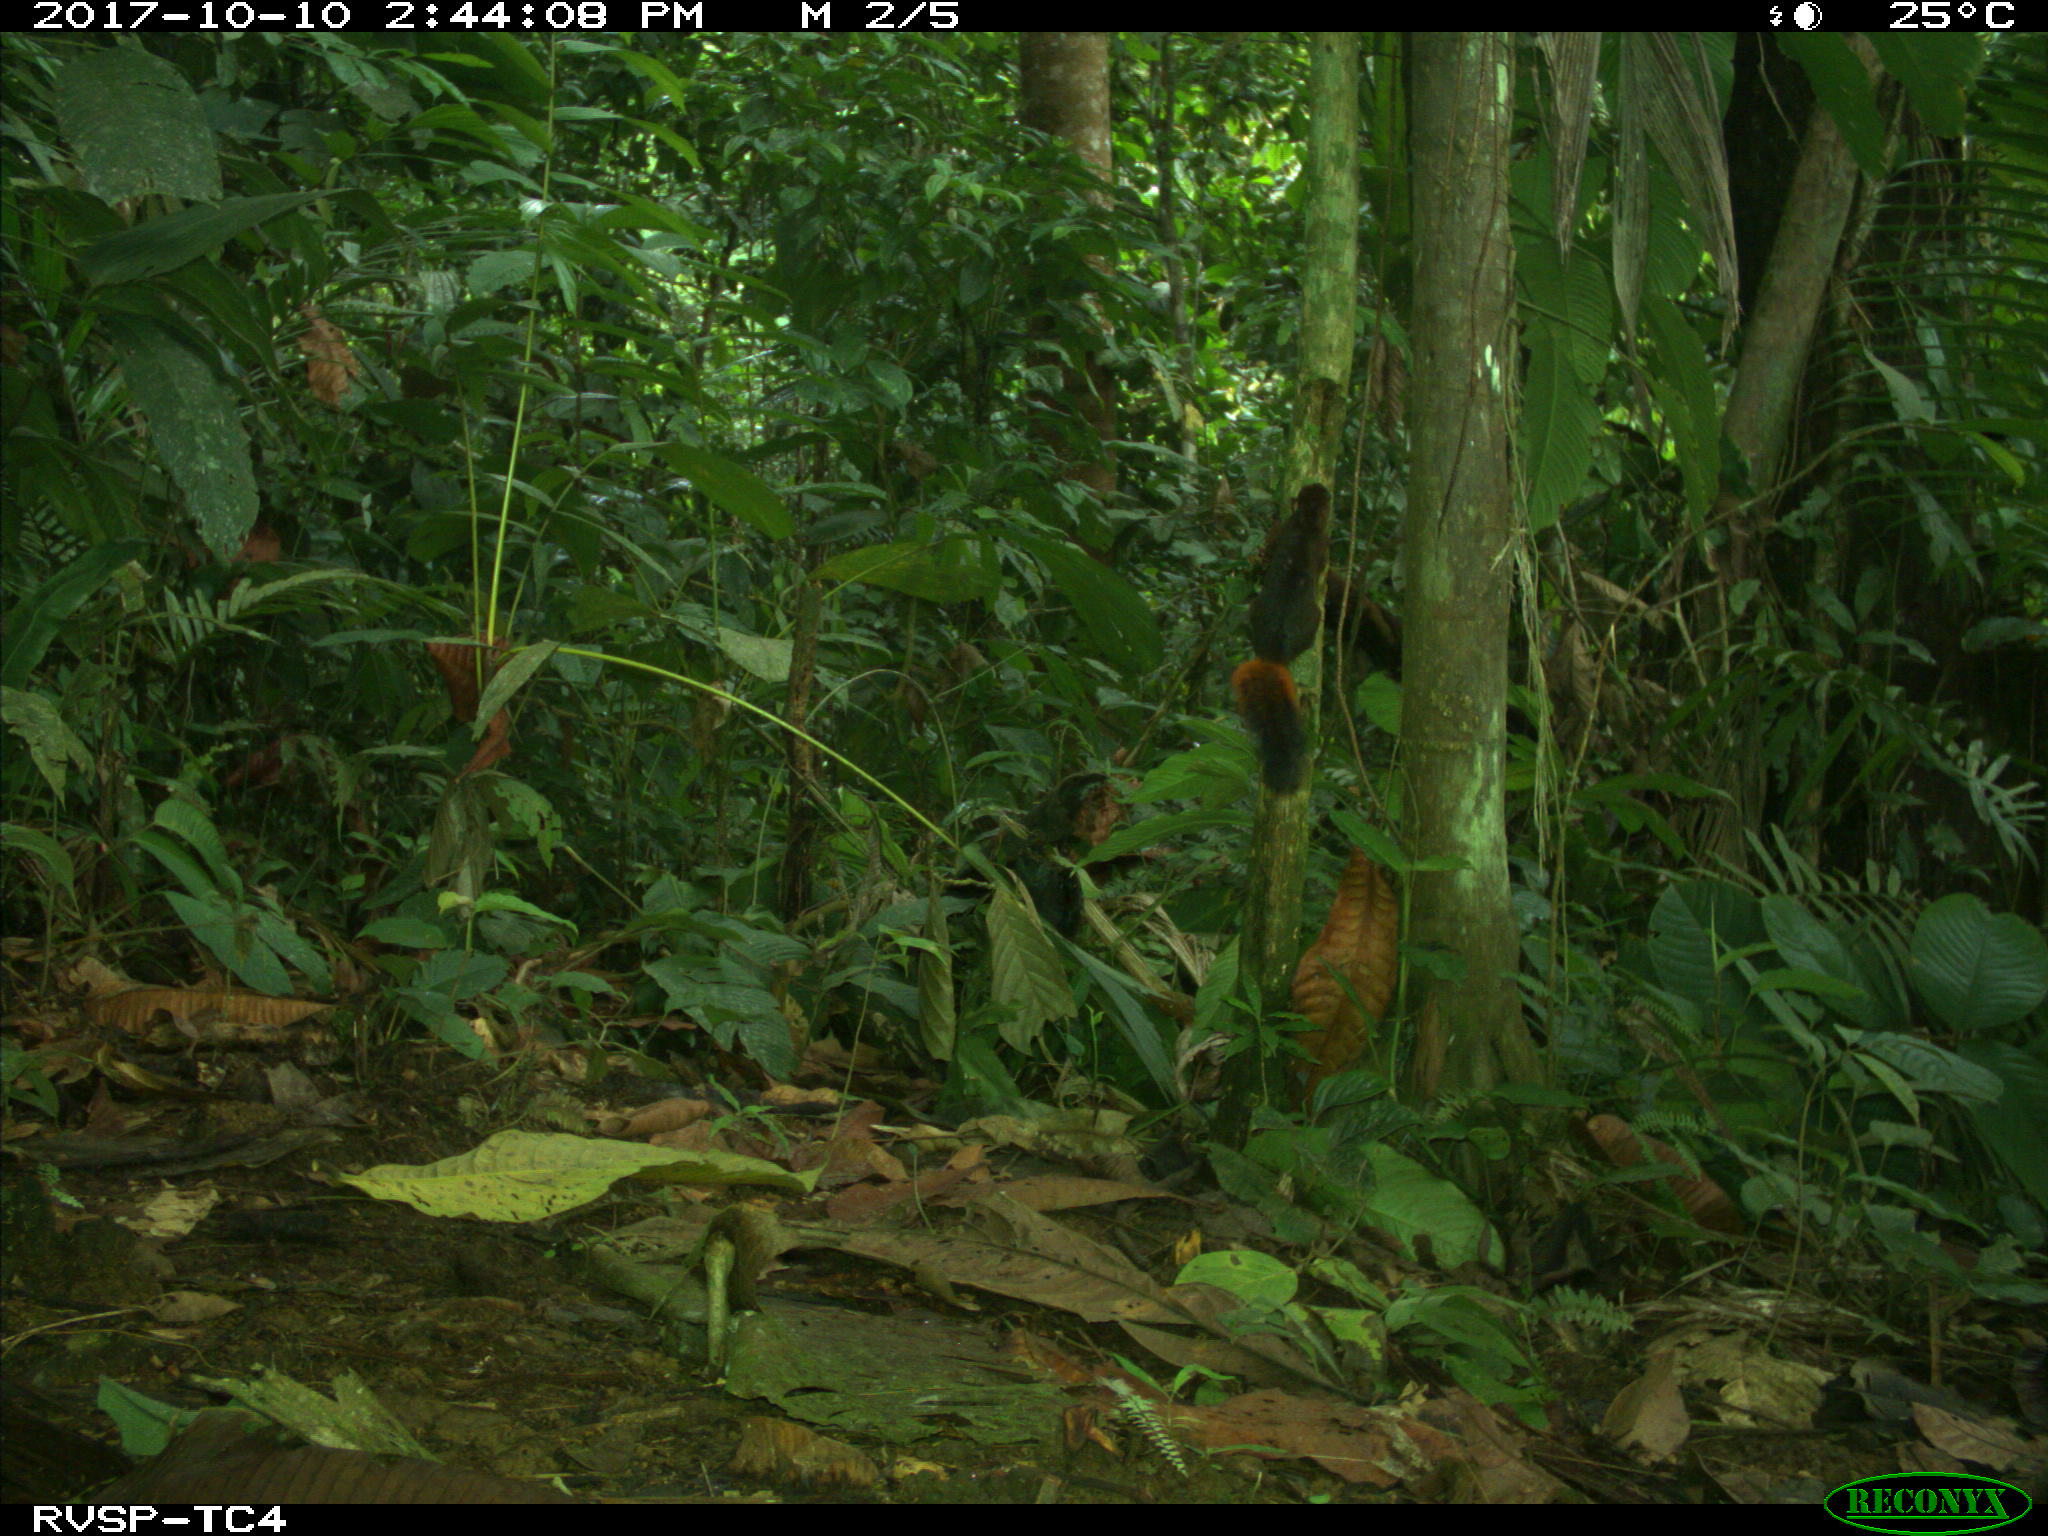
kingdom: Animalia
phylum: Chordata
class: Mammalia
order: Rodentia
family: Sciuridae
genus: Sciurus
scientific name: Sciurus granatensis
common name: Red-tailed squirrel
